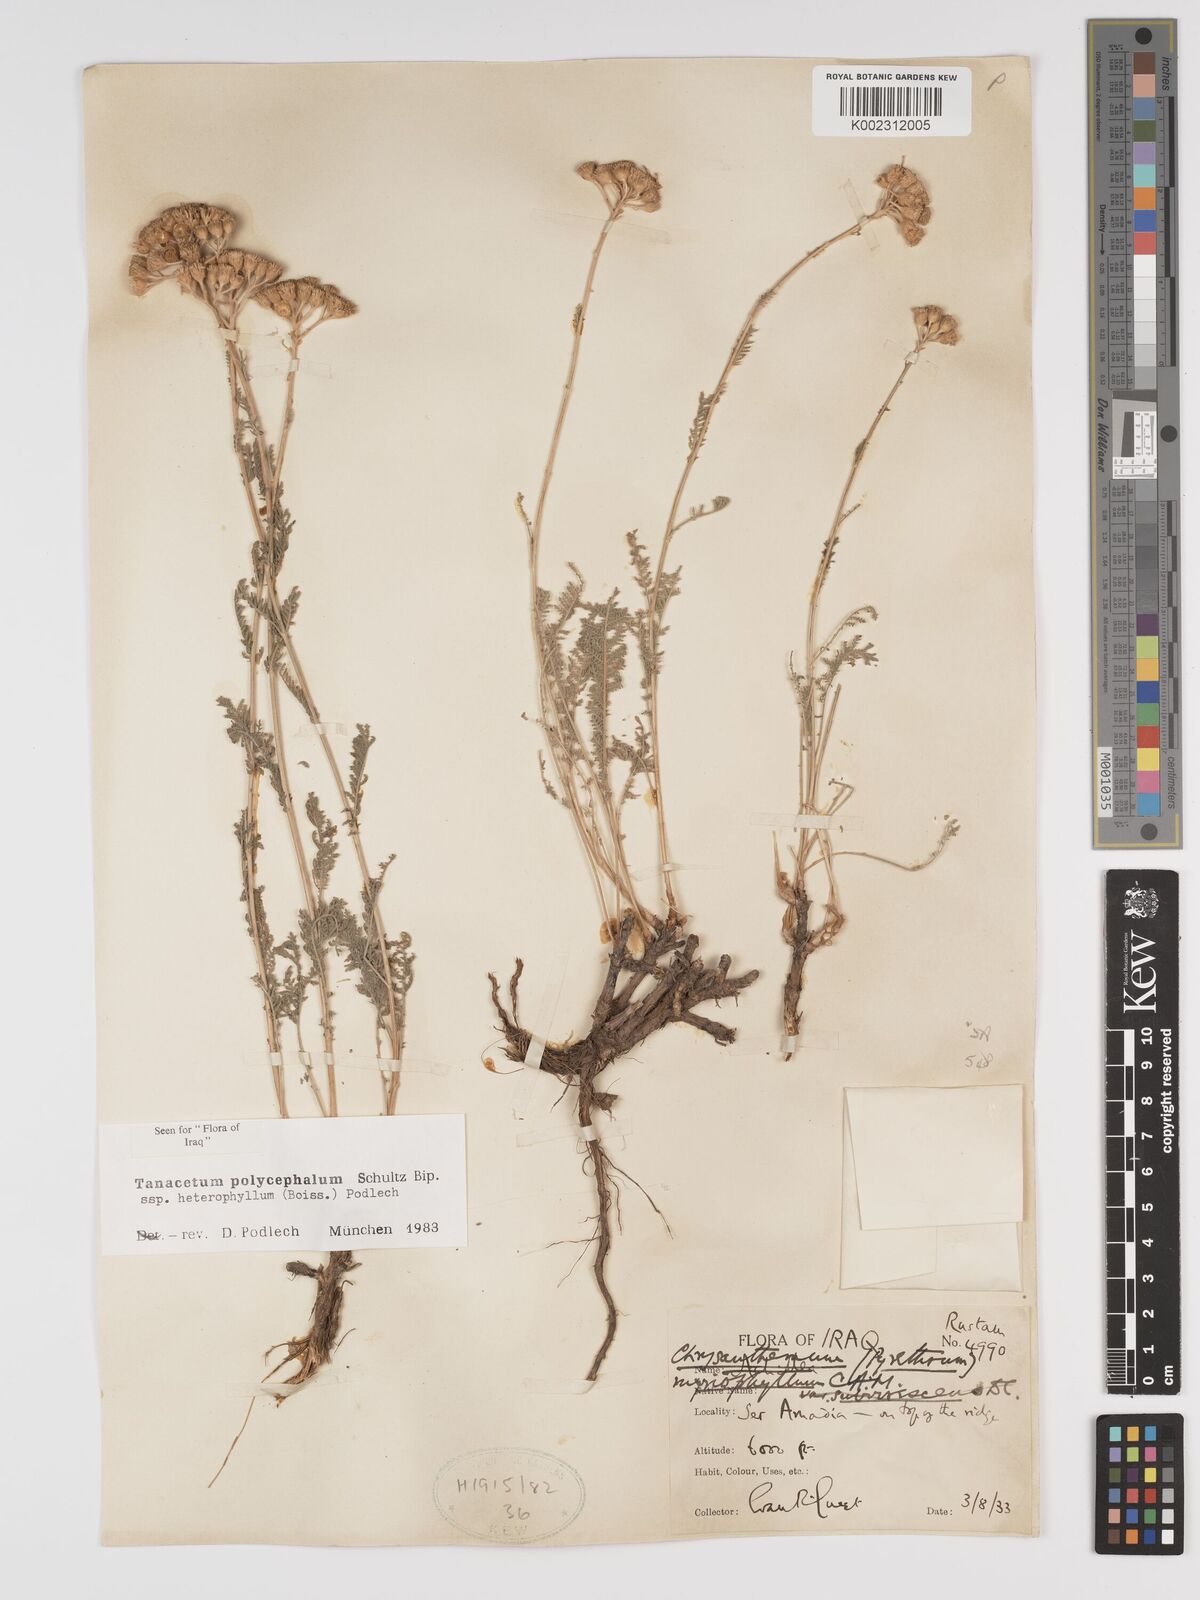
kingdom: Plantae
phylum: Tracheophyta
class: Magnoliopsida
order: Asterales
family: Asteraceae
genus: Tanacetum
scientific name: Tanacetum polycephalum
